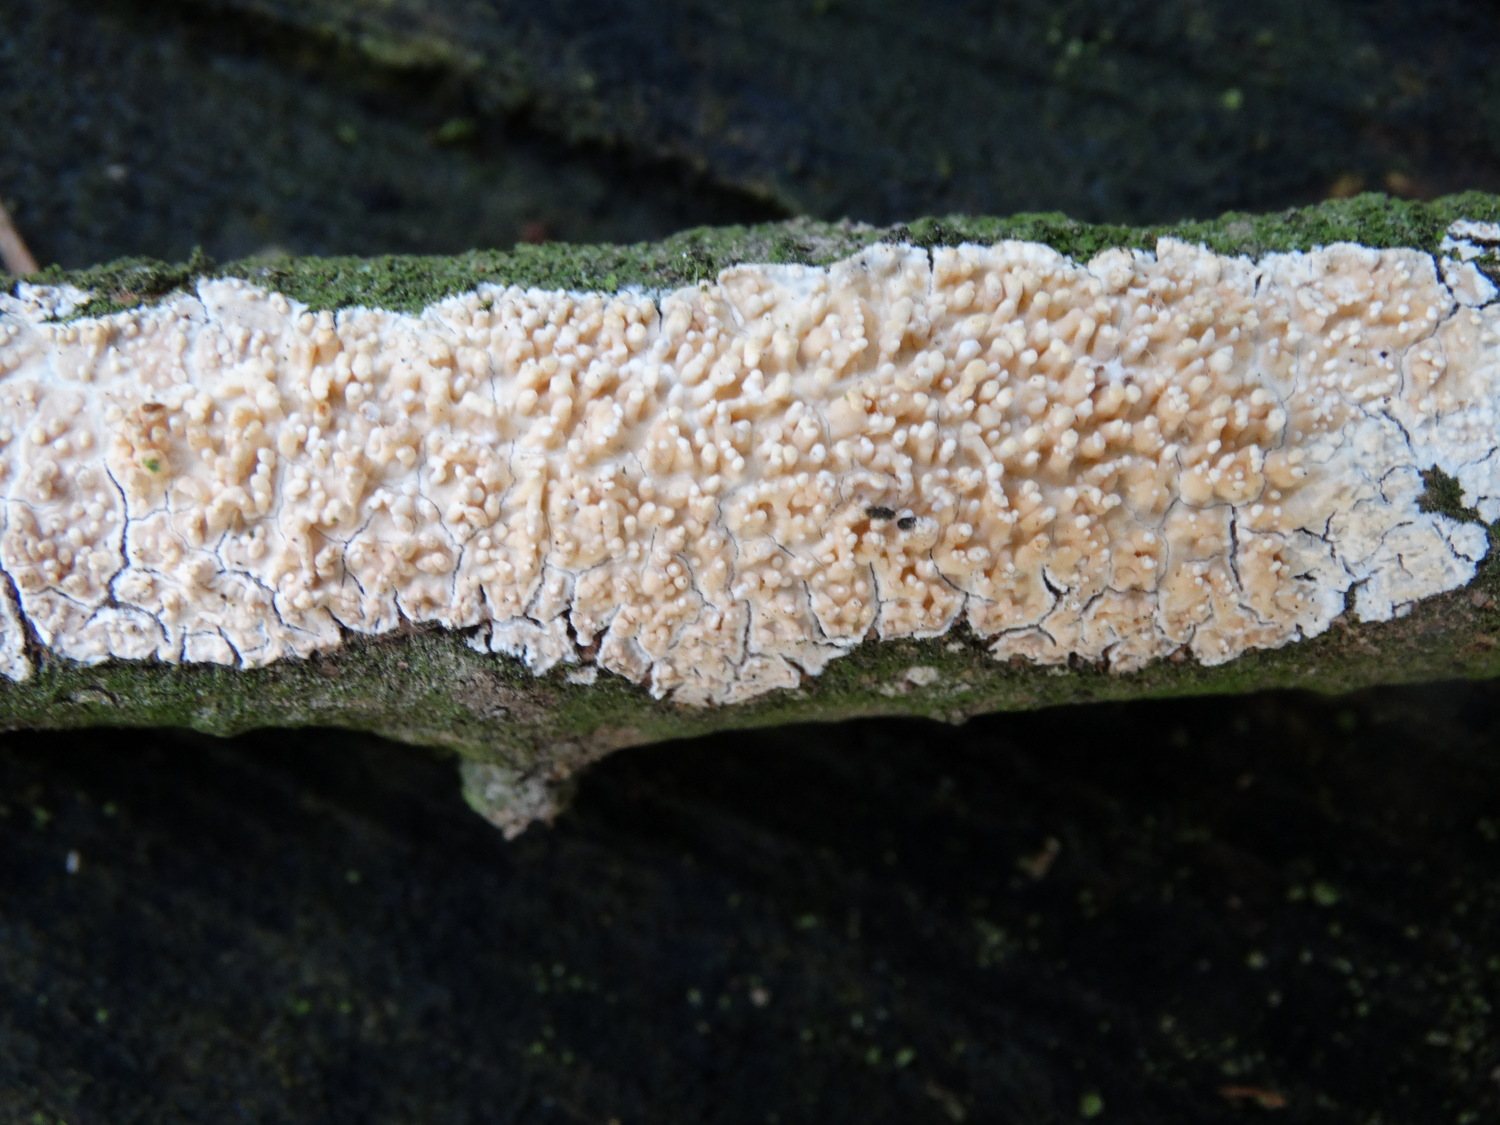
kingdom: Fungi
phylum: Basidiomycota
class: Agaricomycetes
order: Hymenochaetales
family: Schizoporaceae
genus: Xylodon
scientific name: Xylodon radula
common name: grovtandet kalkskind
